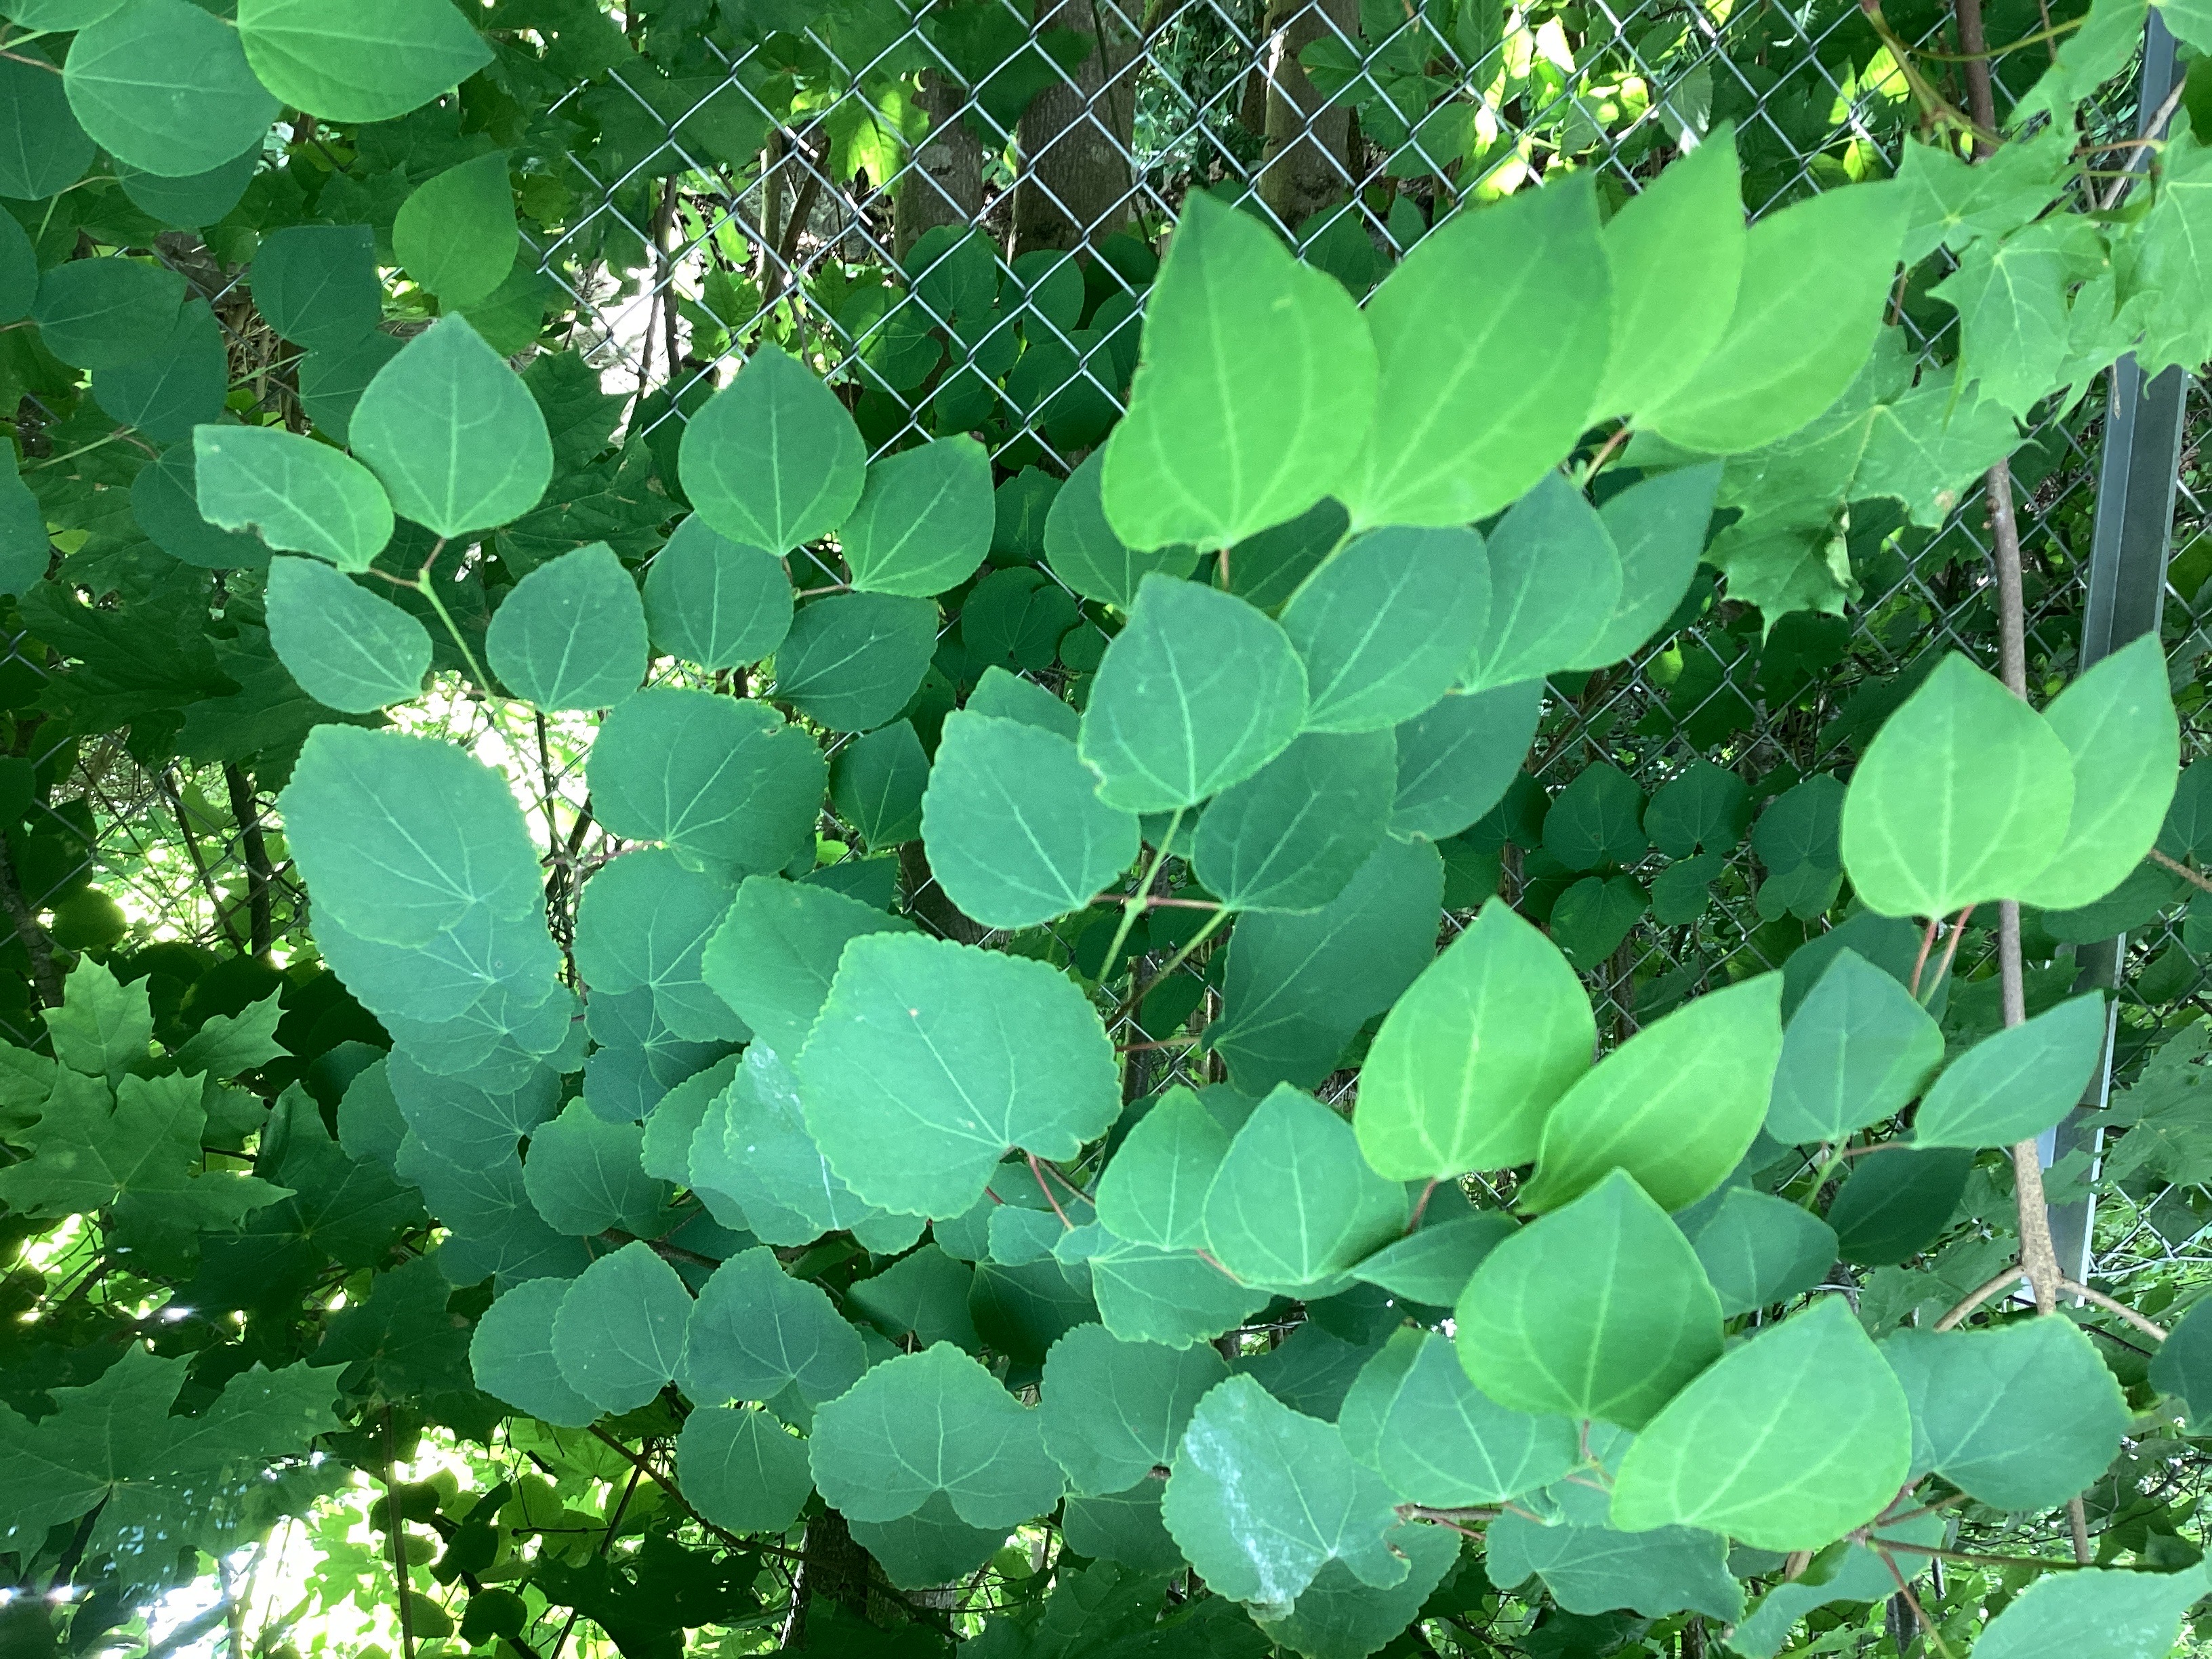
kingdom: Plantae
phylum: Tracheophyta
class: Magnoliopsida
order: Saxifragales
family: Cercidiphyllaceae
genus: Cercidiphyllum
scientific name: Cercidiphyllum japonicum
